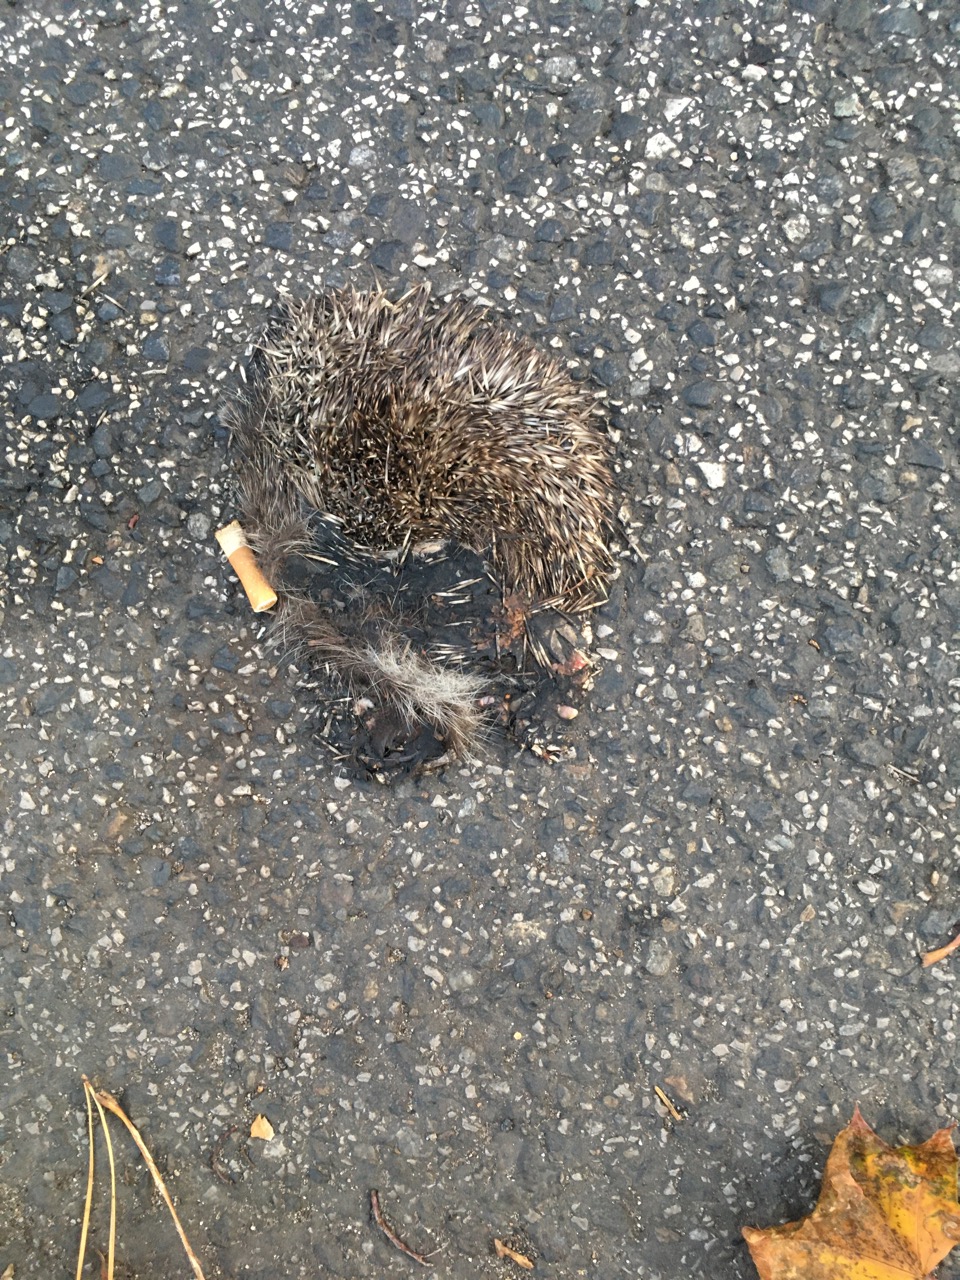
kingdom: Animalia
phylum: Chordata
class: Mammalia
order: Erinaceomorpha
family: Erinaceidae
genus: Erinaceus
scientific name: Erinaceus
